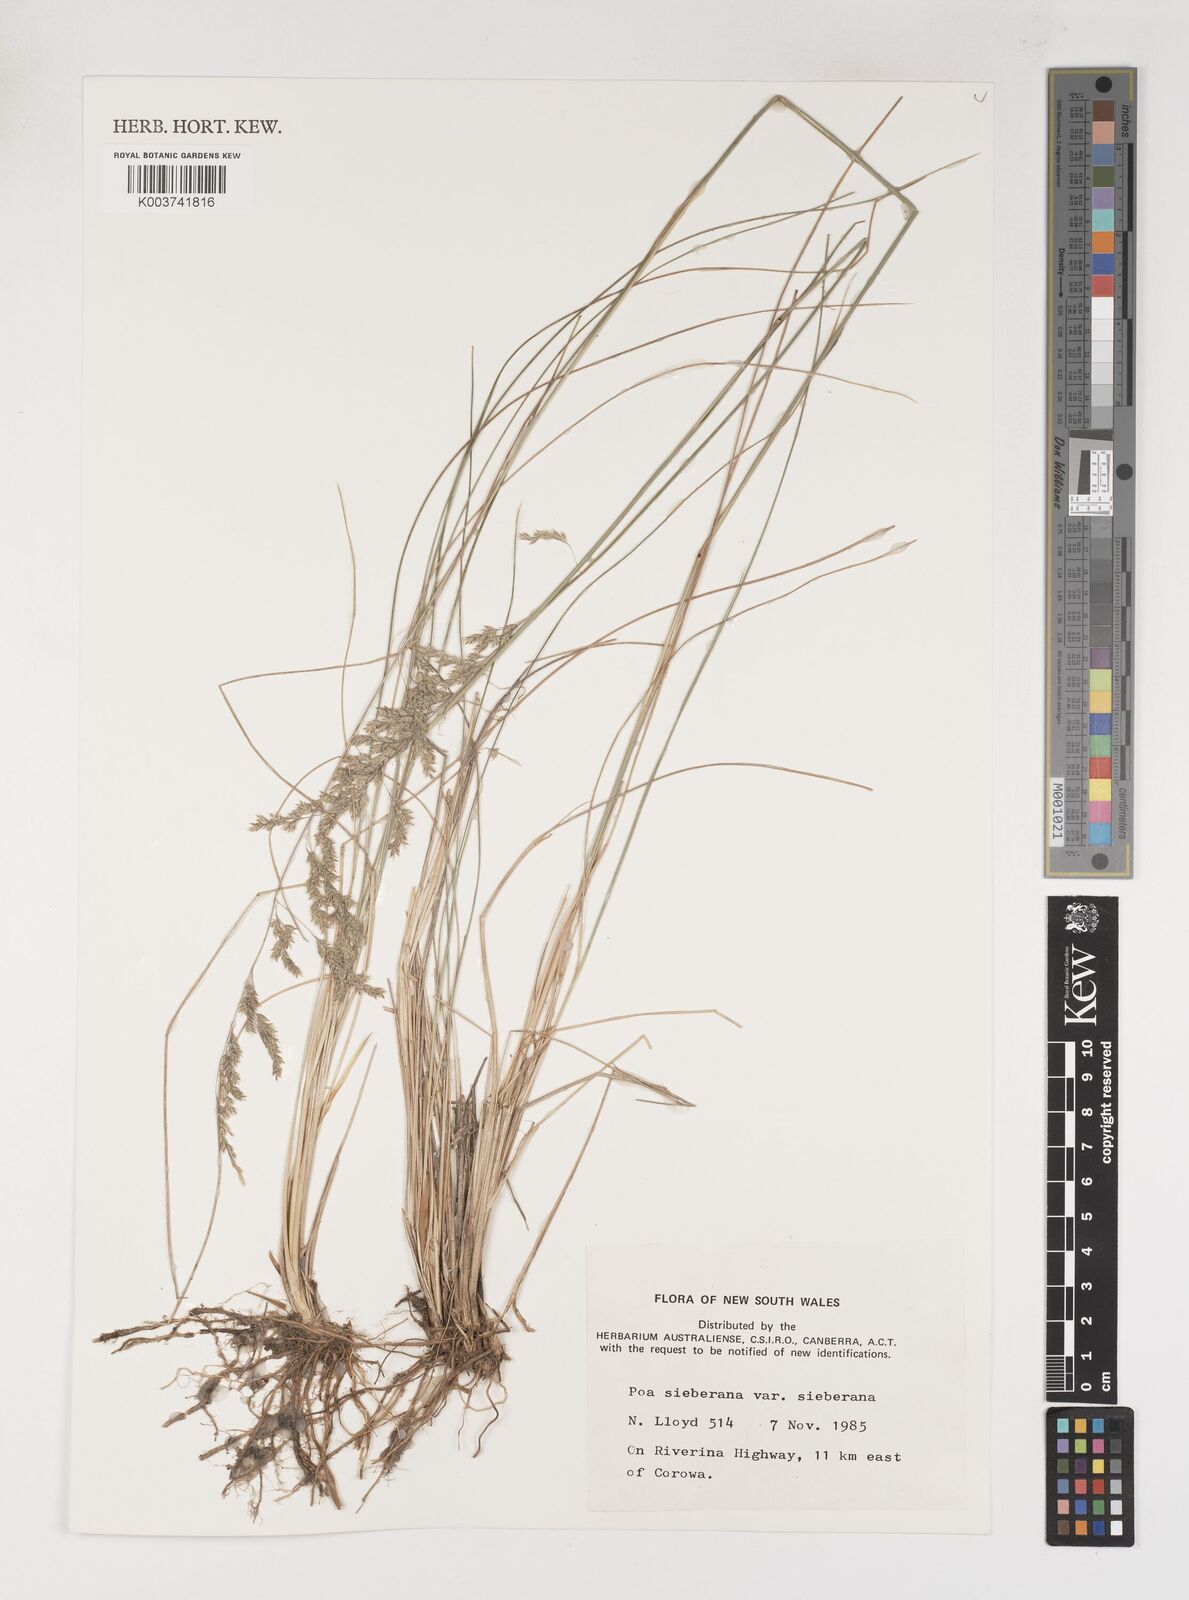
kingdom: Plantae
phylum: Tracheophyta
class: Liliopsida
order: Poales
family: Poaceae
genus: Poa
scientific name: Poa sieberiana
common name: Tussock poa
